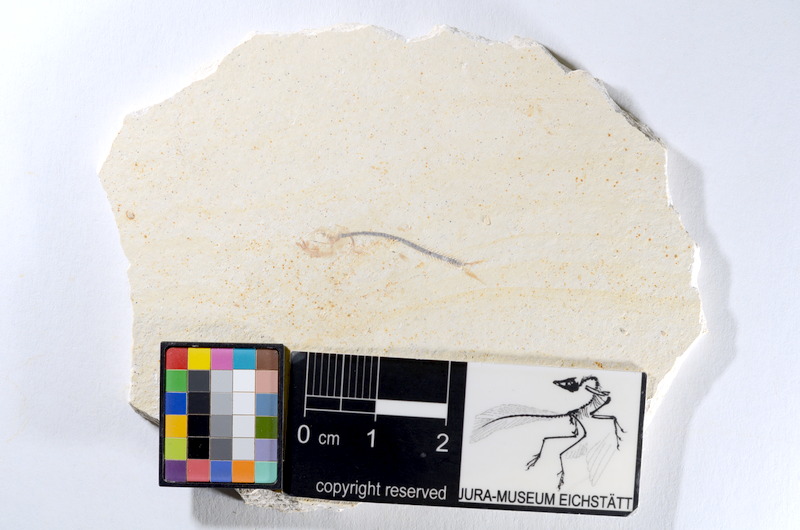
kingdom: Animalia
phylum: Chordata
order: Salmoniformes
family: Orthogonikleithridae
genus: Orthogonikleithrus
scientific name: Orthogonikleithrus hoelli
